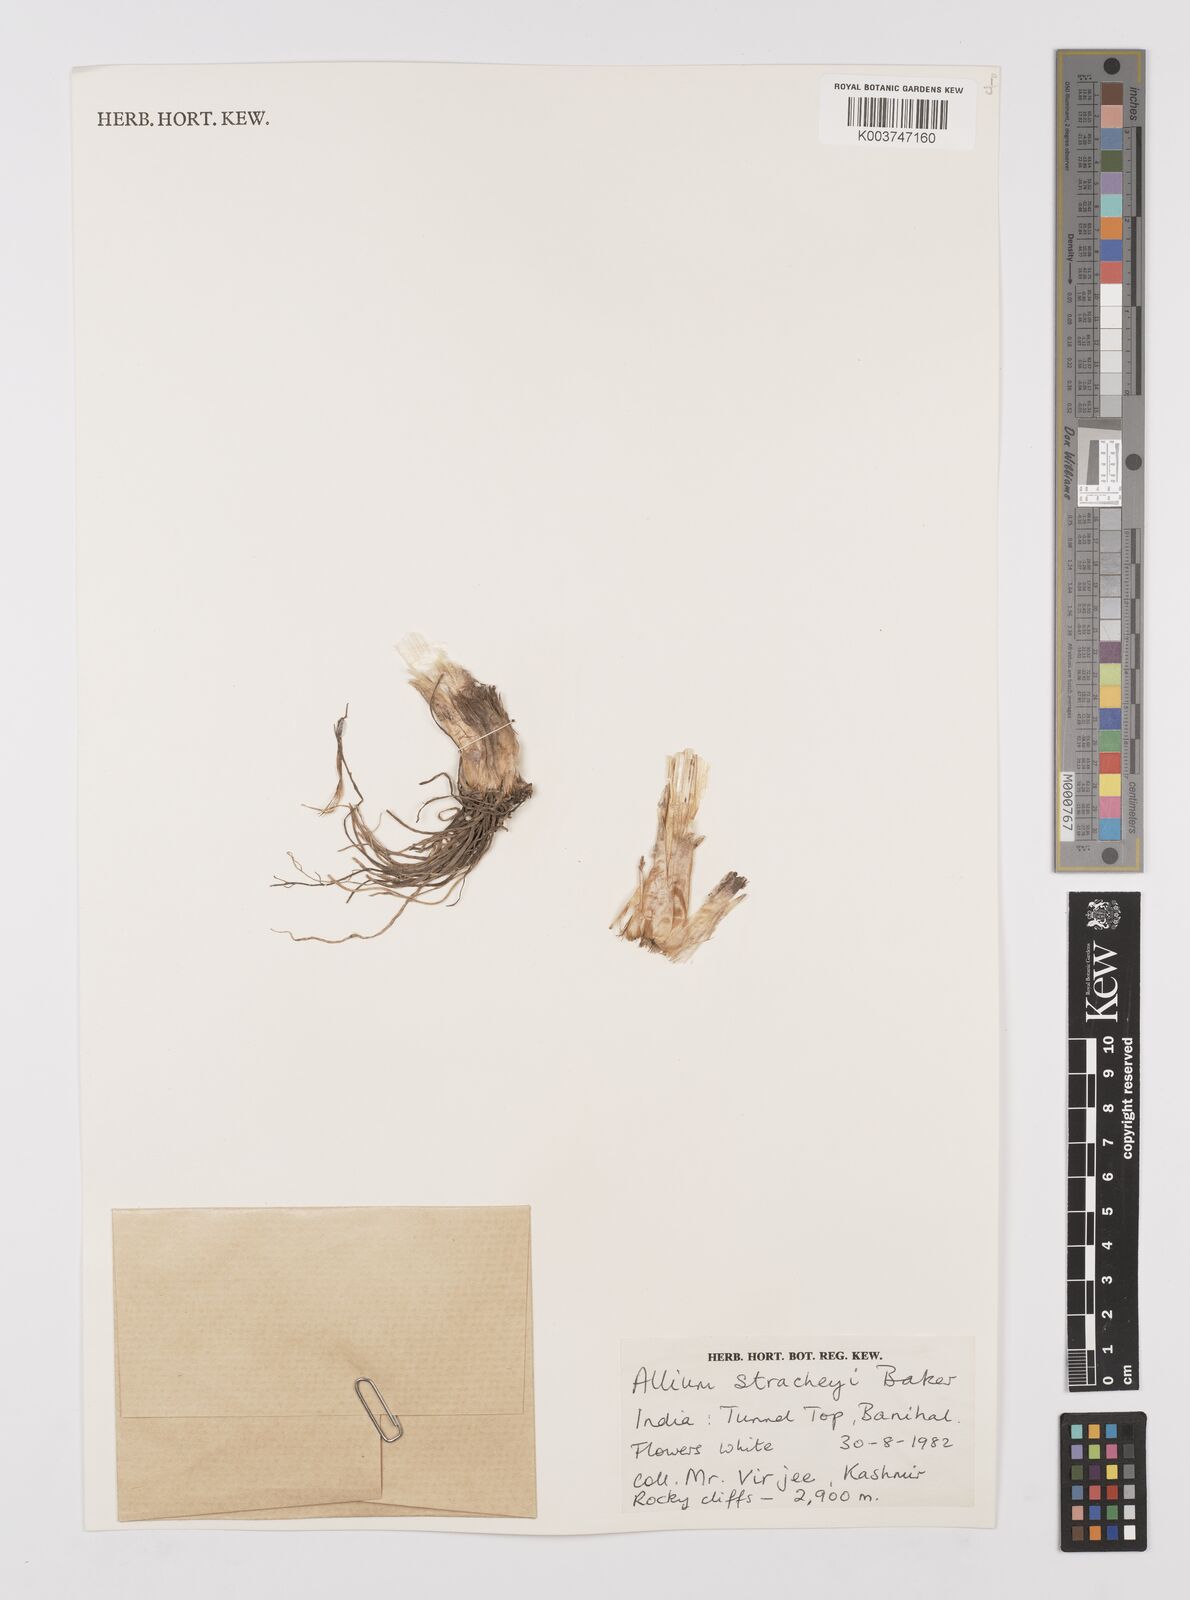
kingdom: Plantae
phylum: Tracheophyta
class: Liliopsida
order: Asparagales
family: Amaryllidaceae
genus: Allium
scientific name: Allium stracheyi
